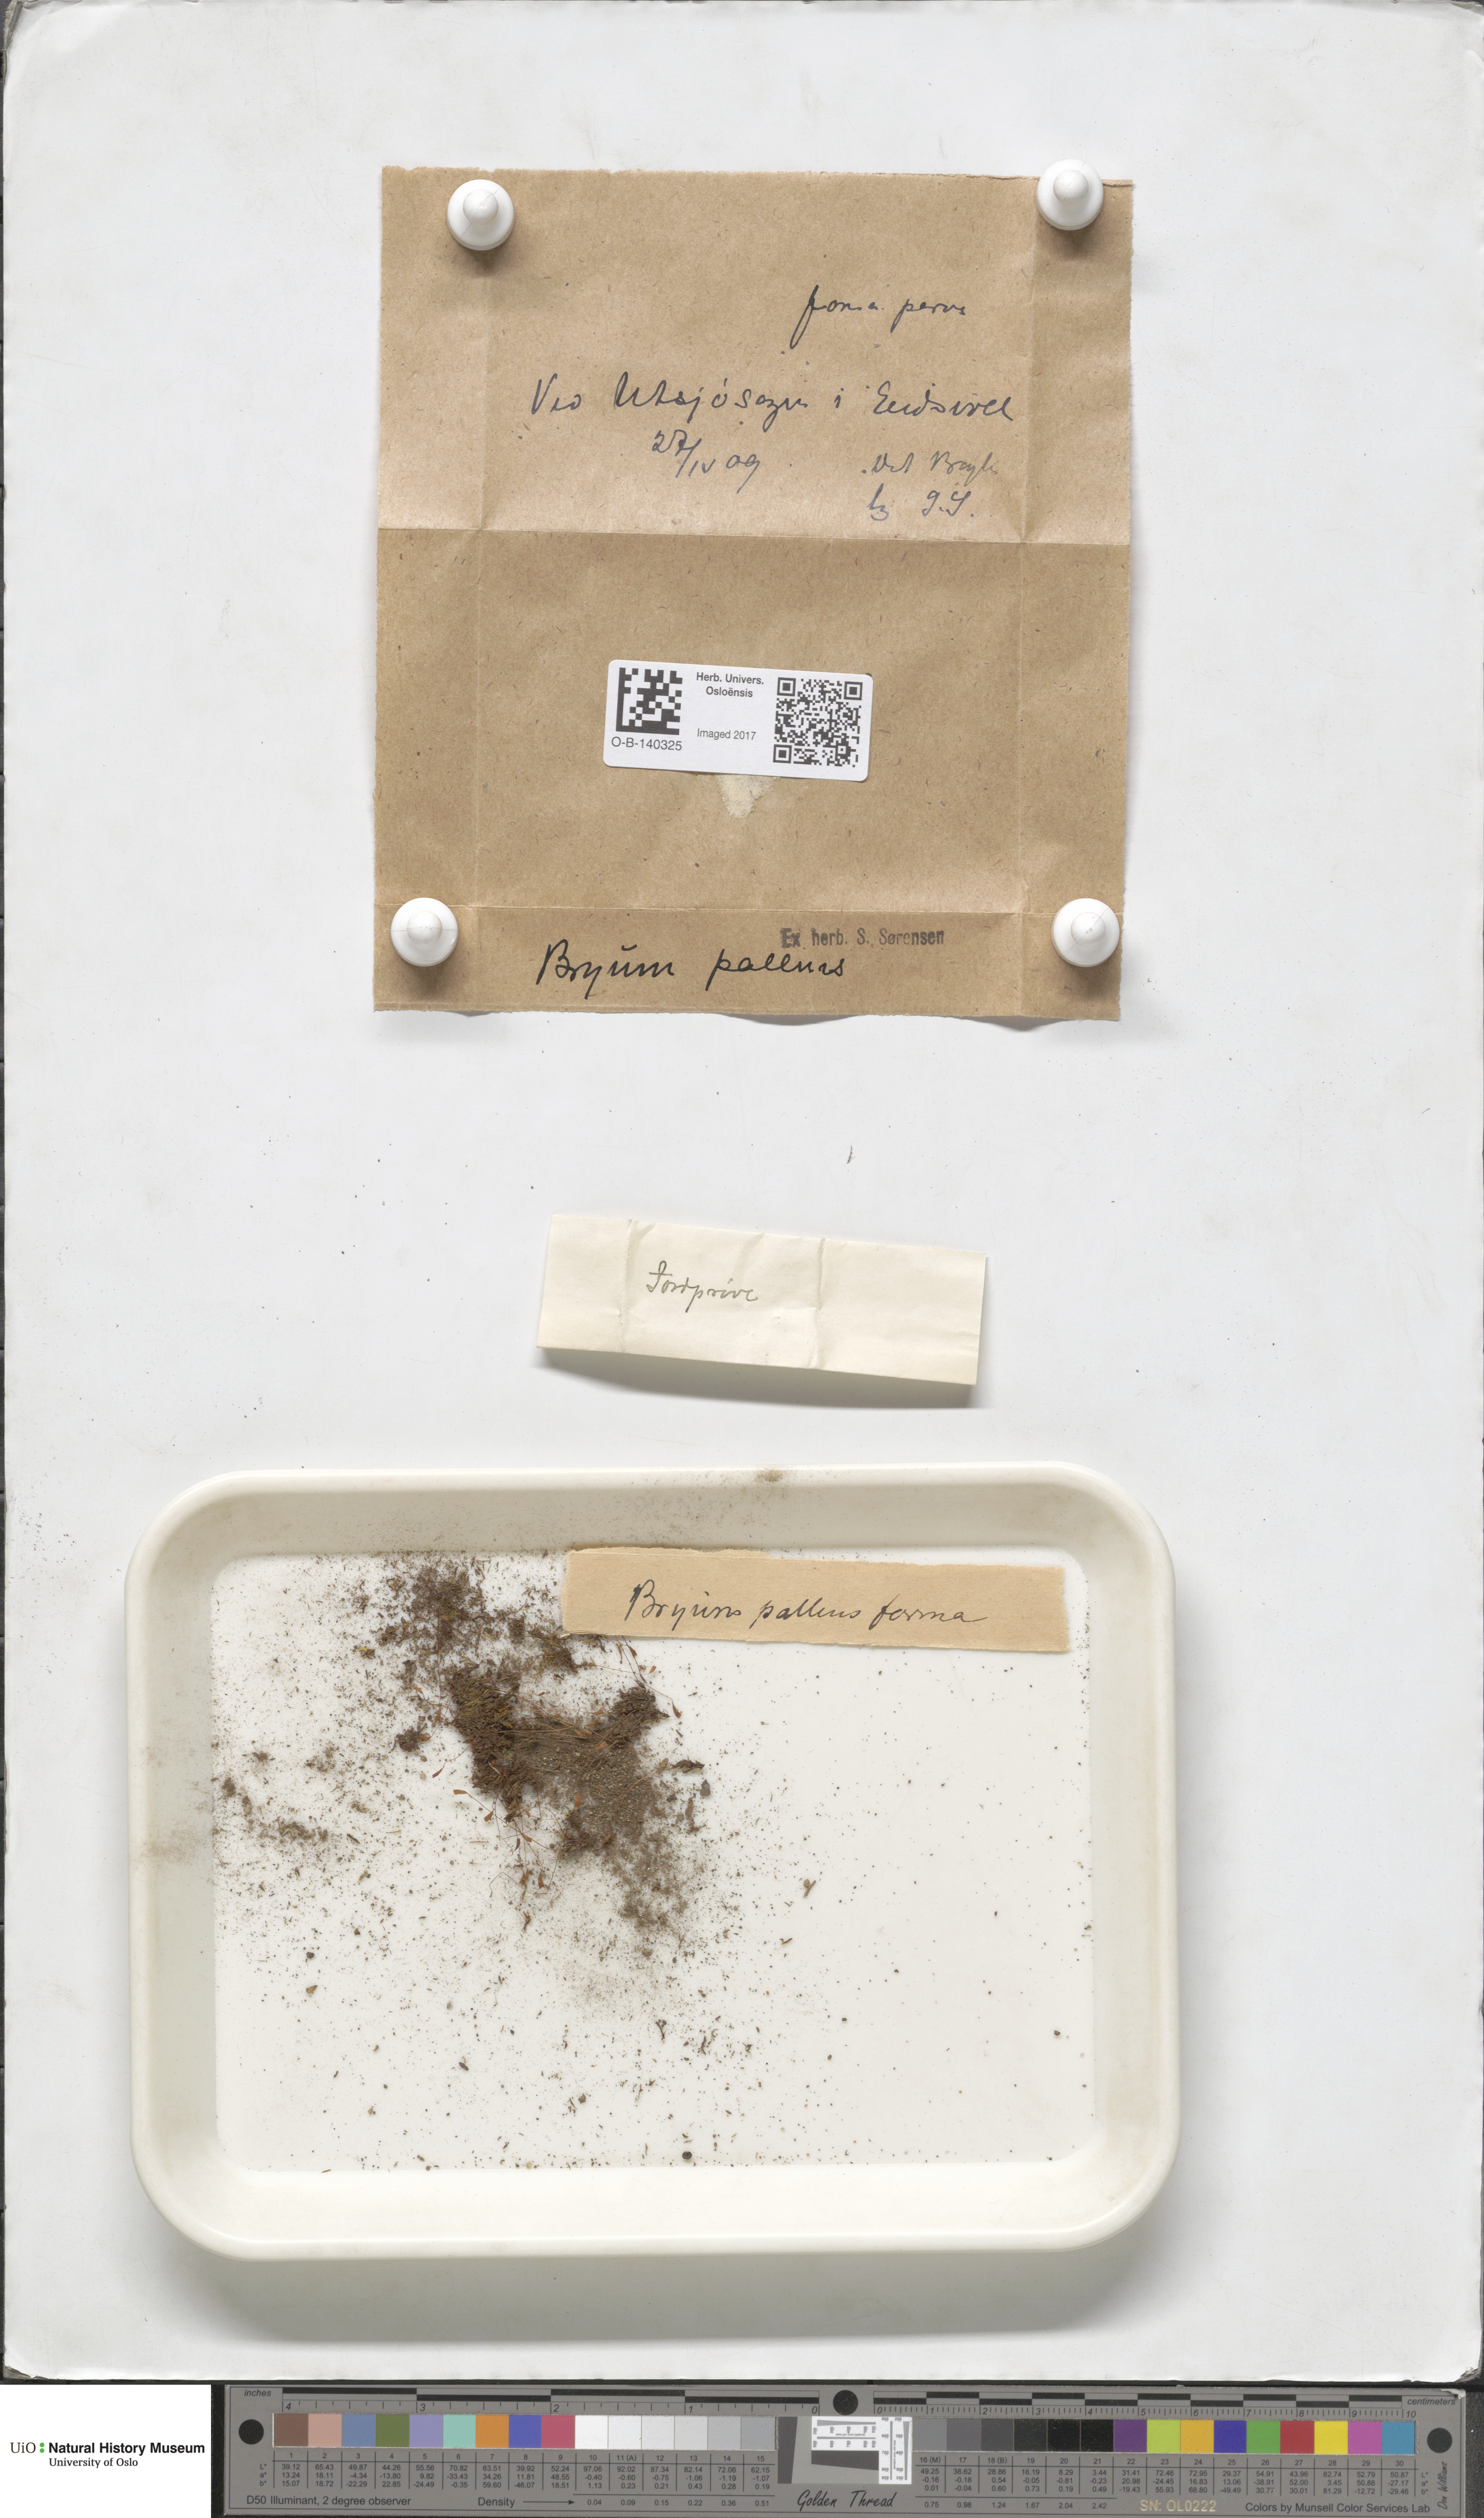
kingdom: Plantae
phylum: Bryophyta
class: Bryopsida
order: Bryales
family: Bryaceae
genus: Ptychostomum
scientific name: Ptychostomum pallens
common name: Pale thread-moss
